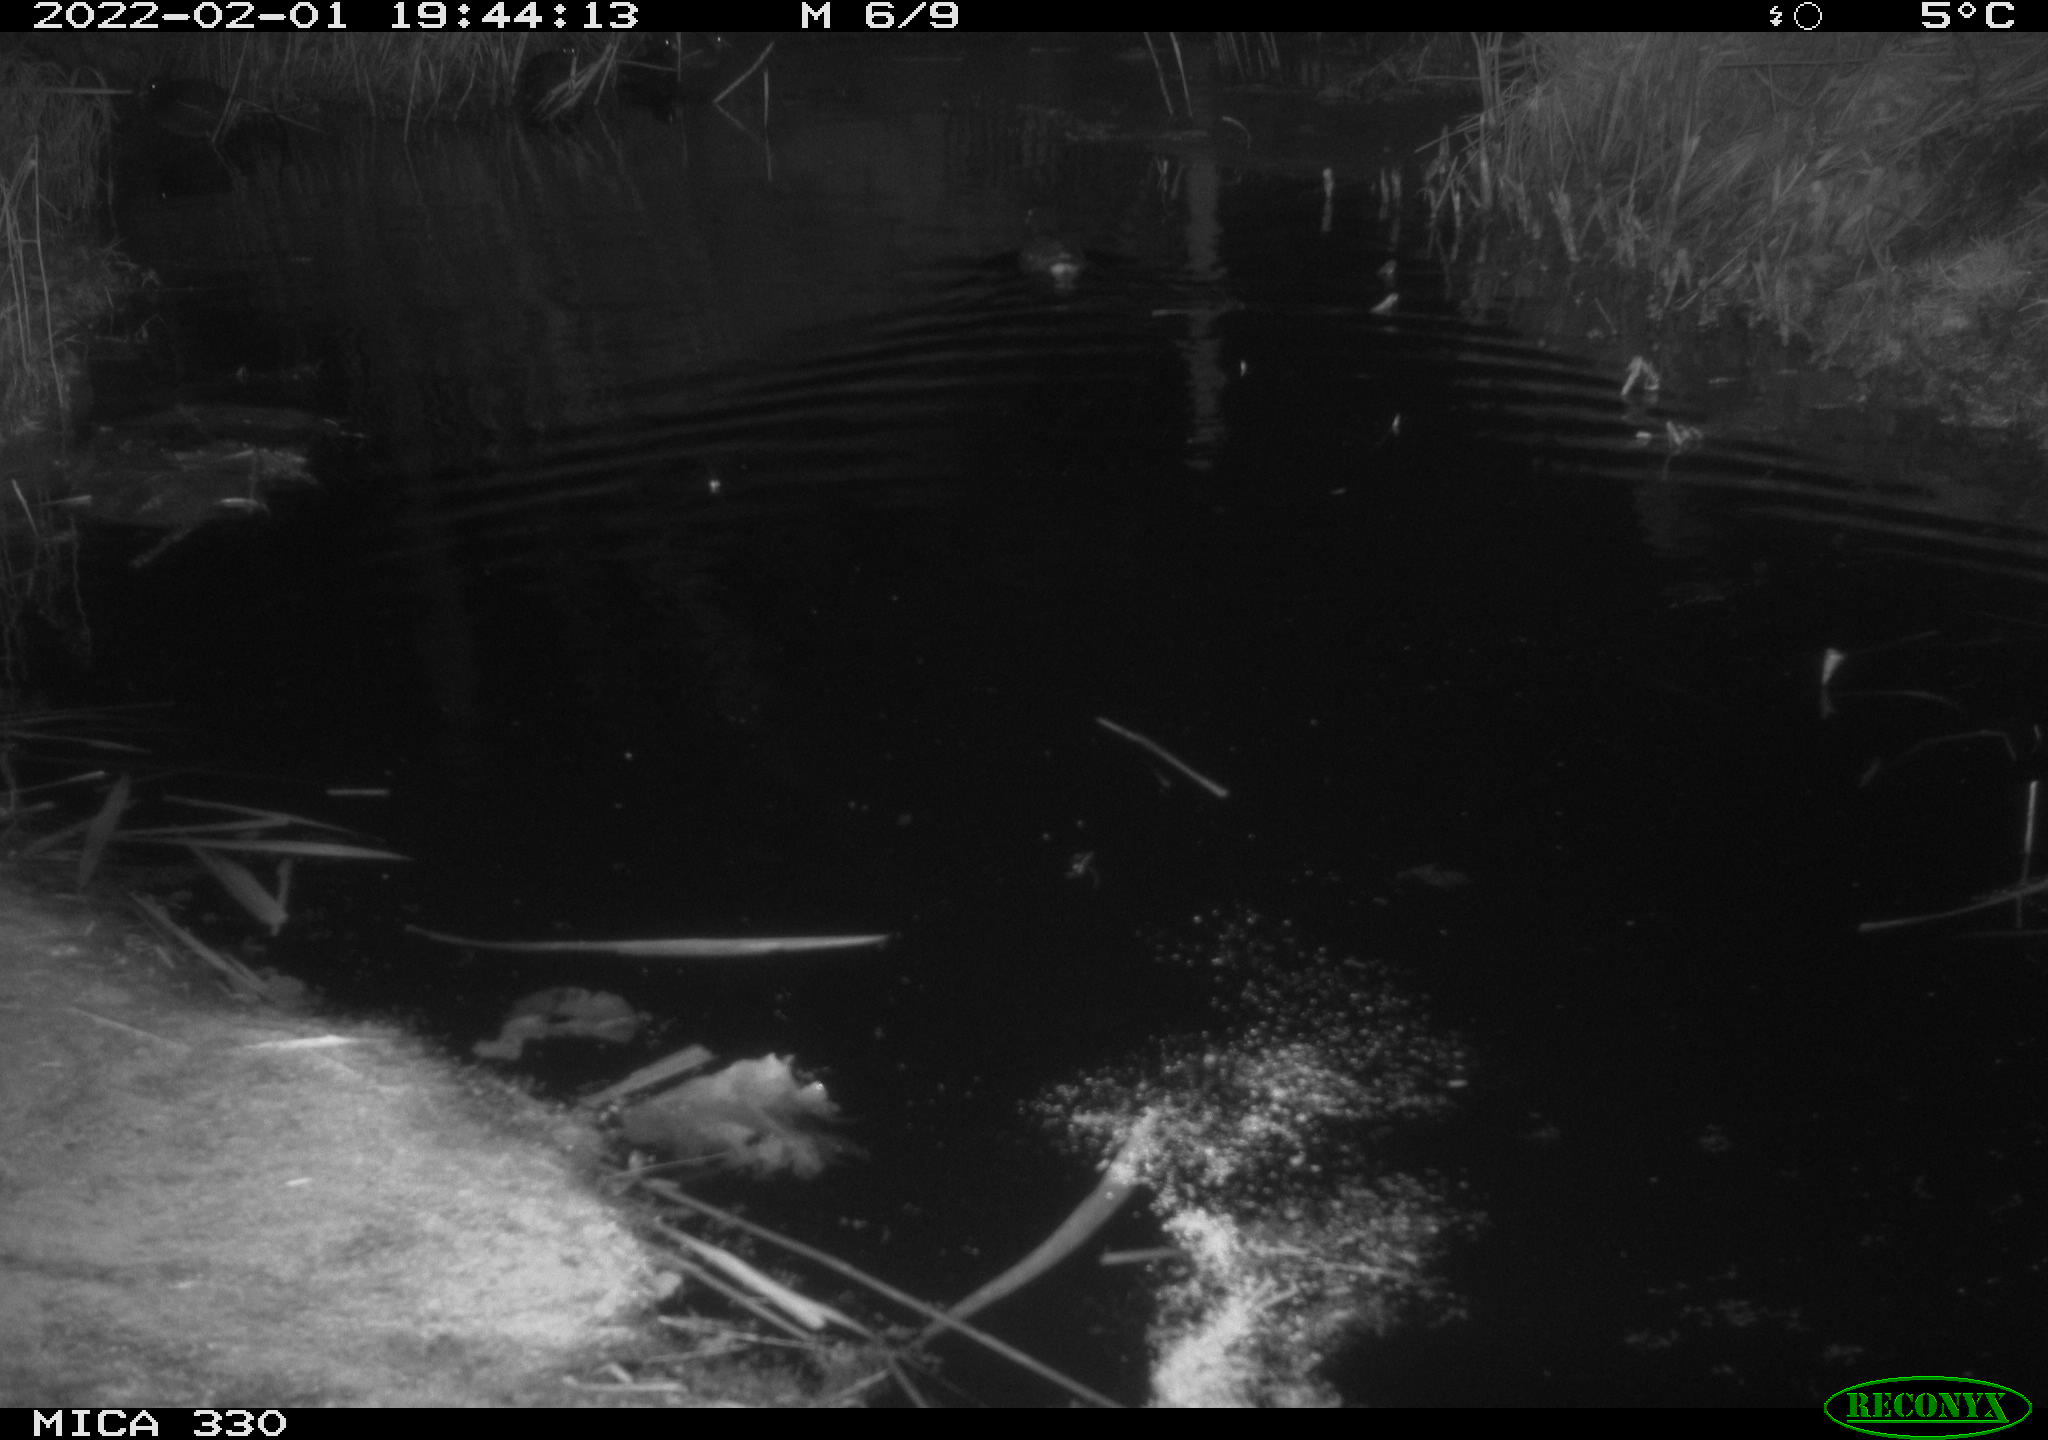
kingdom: Animalia
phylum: Chordata
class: Aves
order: Gruiformes
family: Rallidae
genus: Gallinula
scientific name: Gallinula chloropus
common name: Common moorhen
